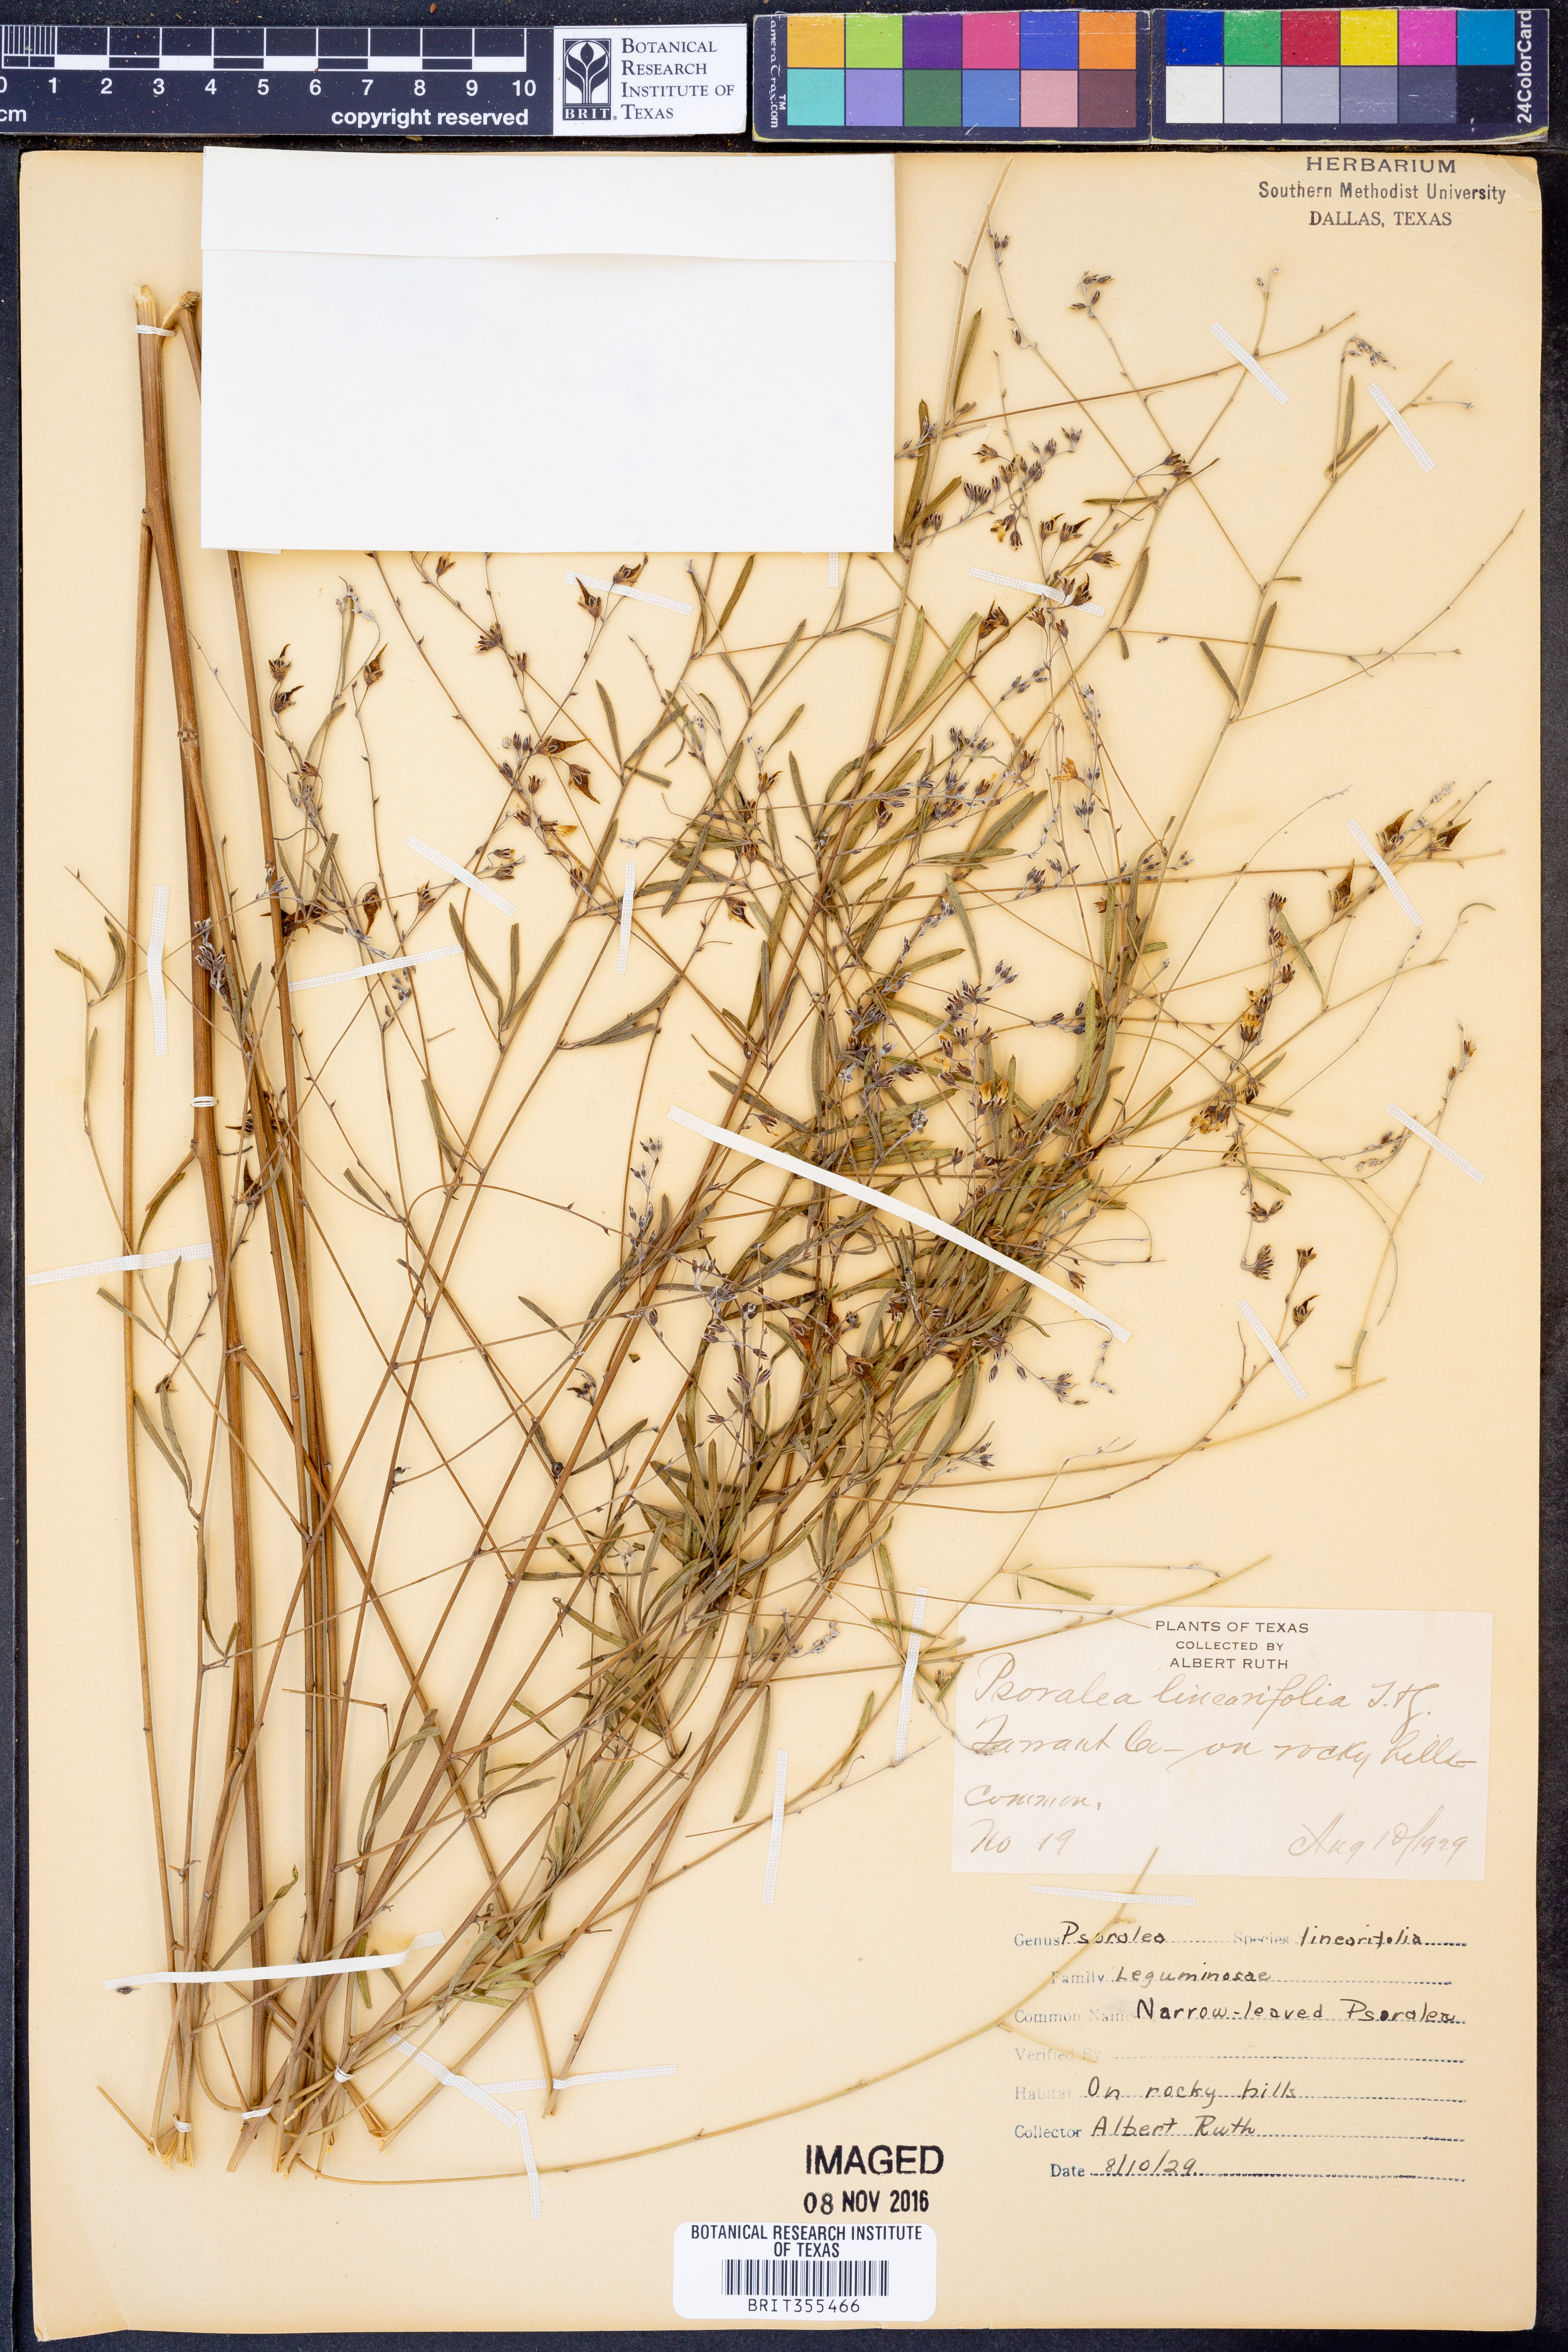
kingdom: Plantae
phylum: Tracheophyta
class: Magnoliopsida
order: Fabales
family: Fabaceae
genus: Pediomelum
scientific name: Pediomelum linearifolium
